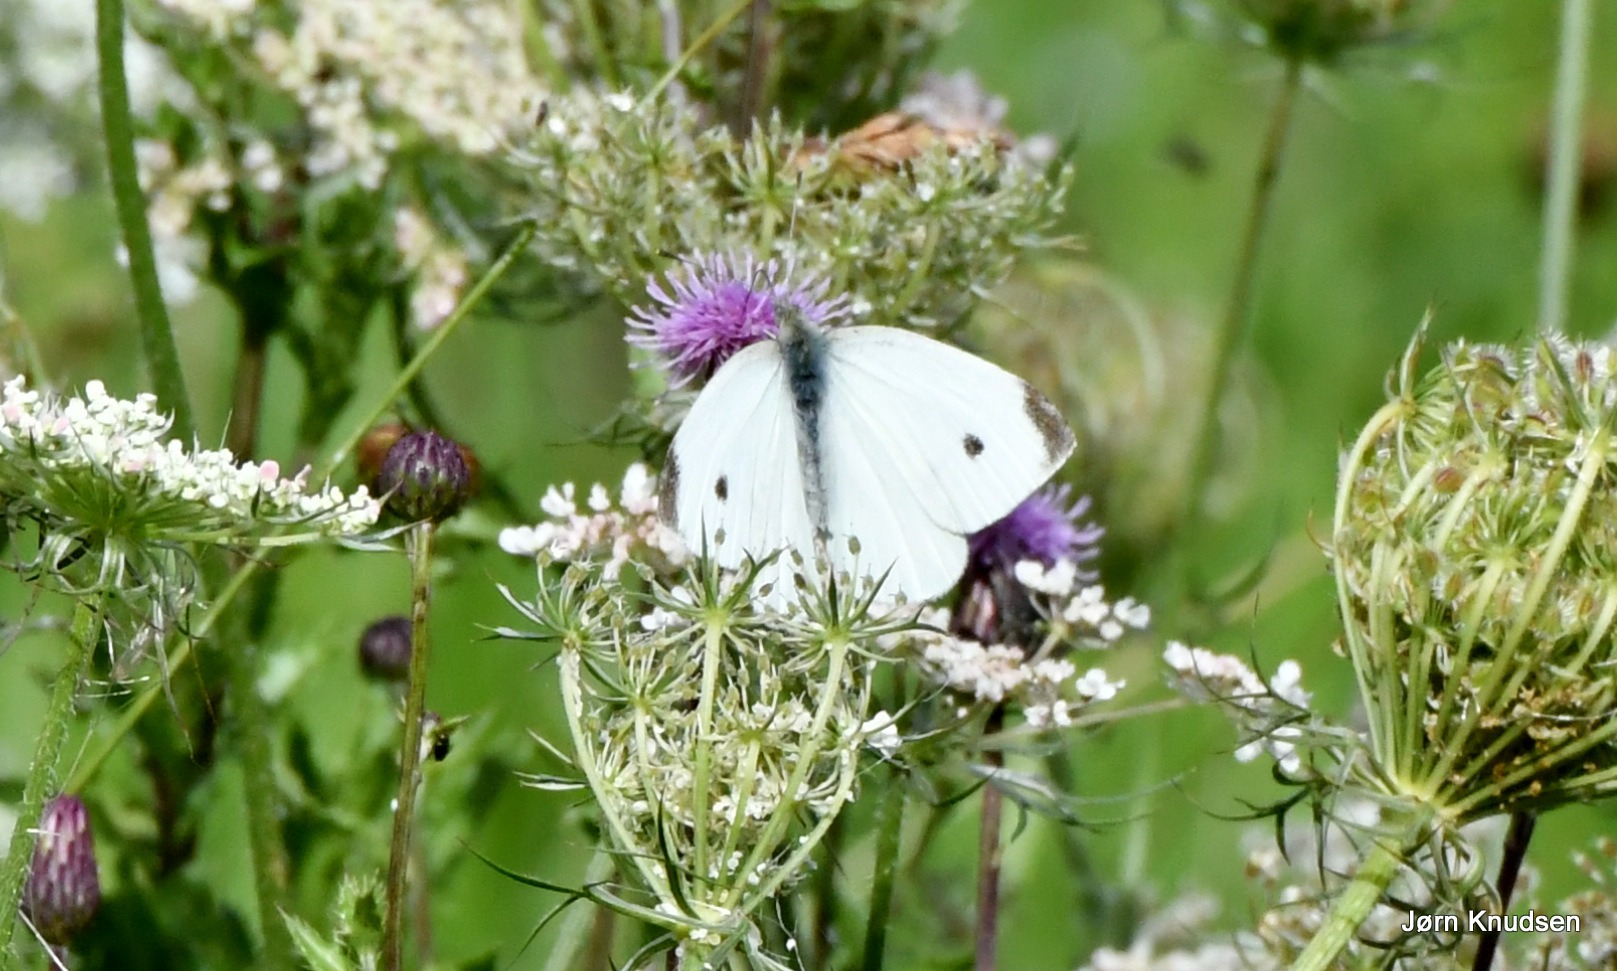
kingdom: Animalia
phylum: Arthropoda
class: Insecta
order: Lepidoptera
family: Pieridae
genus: Pieris
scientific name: Pieris rapae
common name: Lille kålsommerfugl
